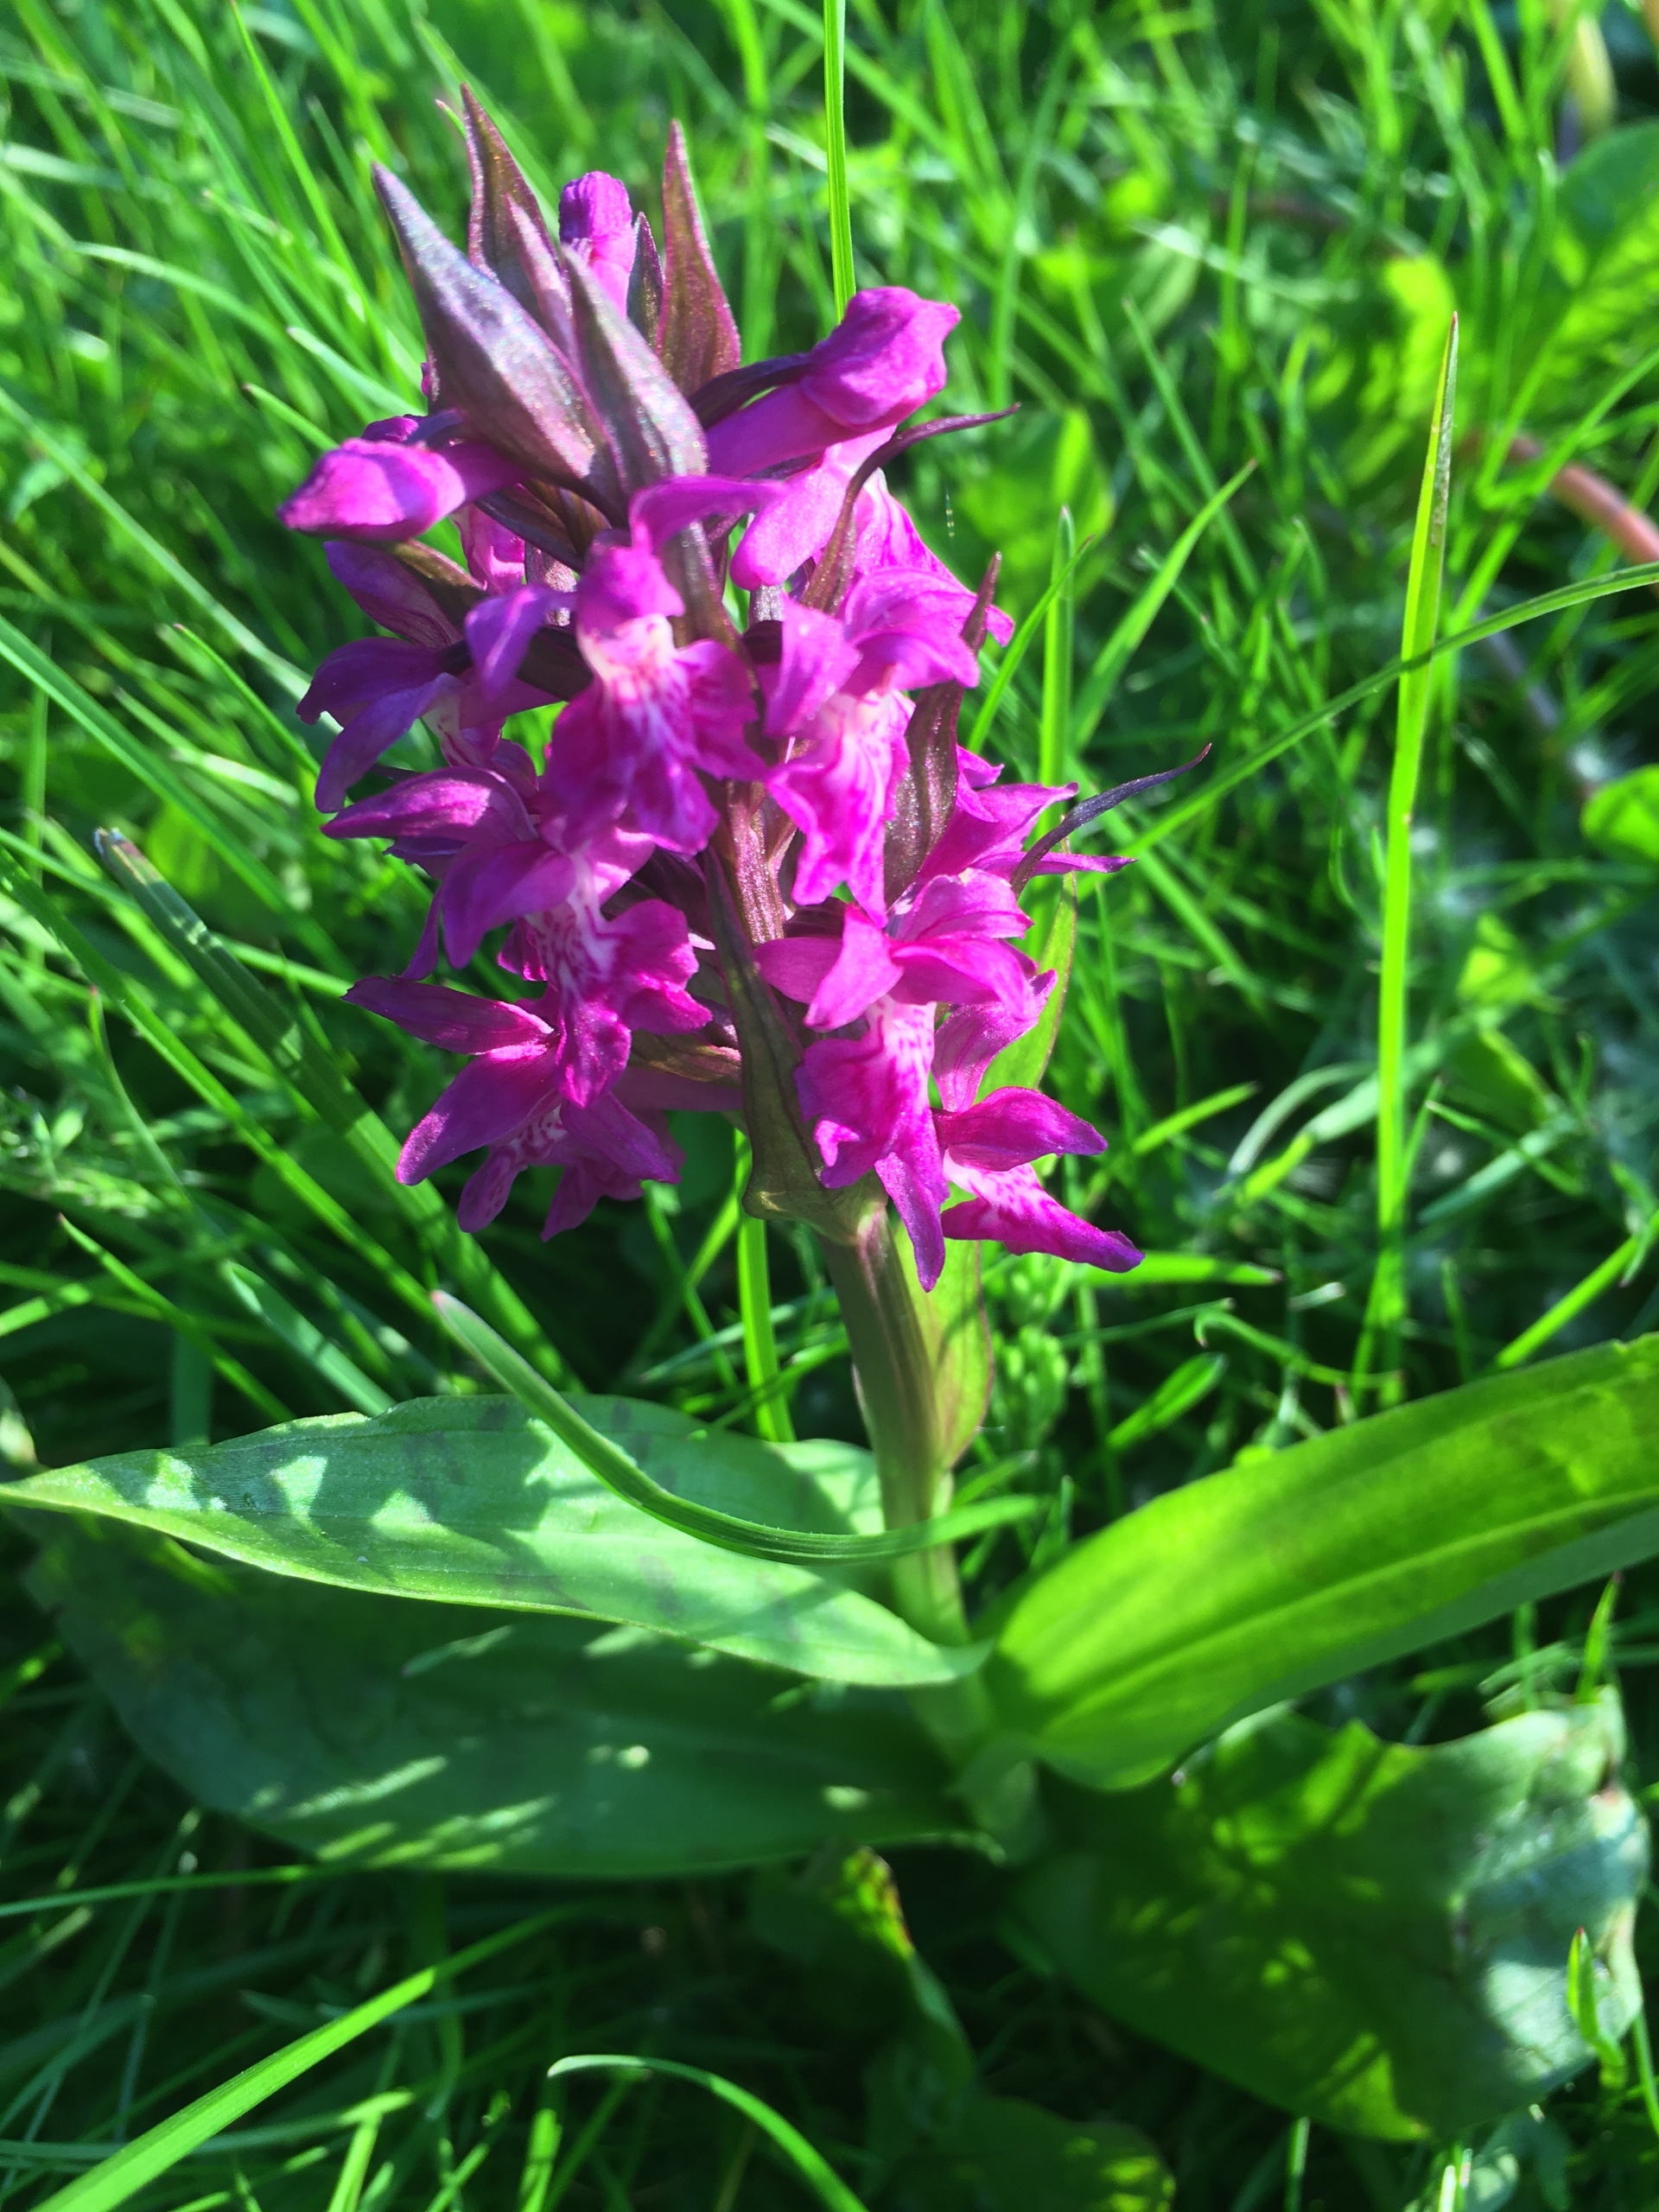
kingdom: Plantae
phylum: Tracheophyta
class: Liliopsida
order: Asparagales
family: Orchidaceae
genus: Dactylorhiza
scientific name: Dactylorhiza majalis
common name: Maj-gøgeurt
